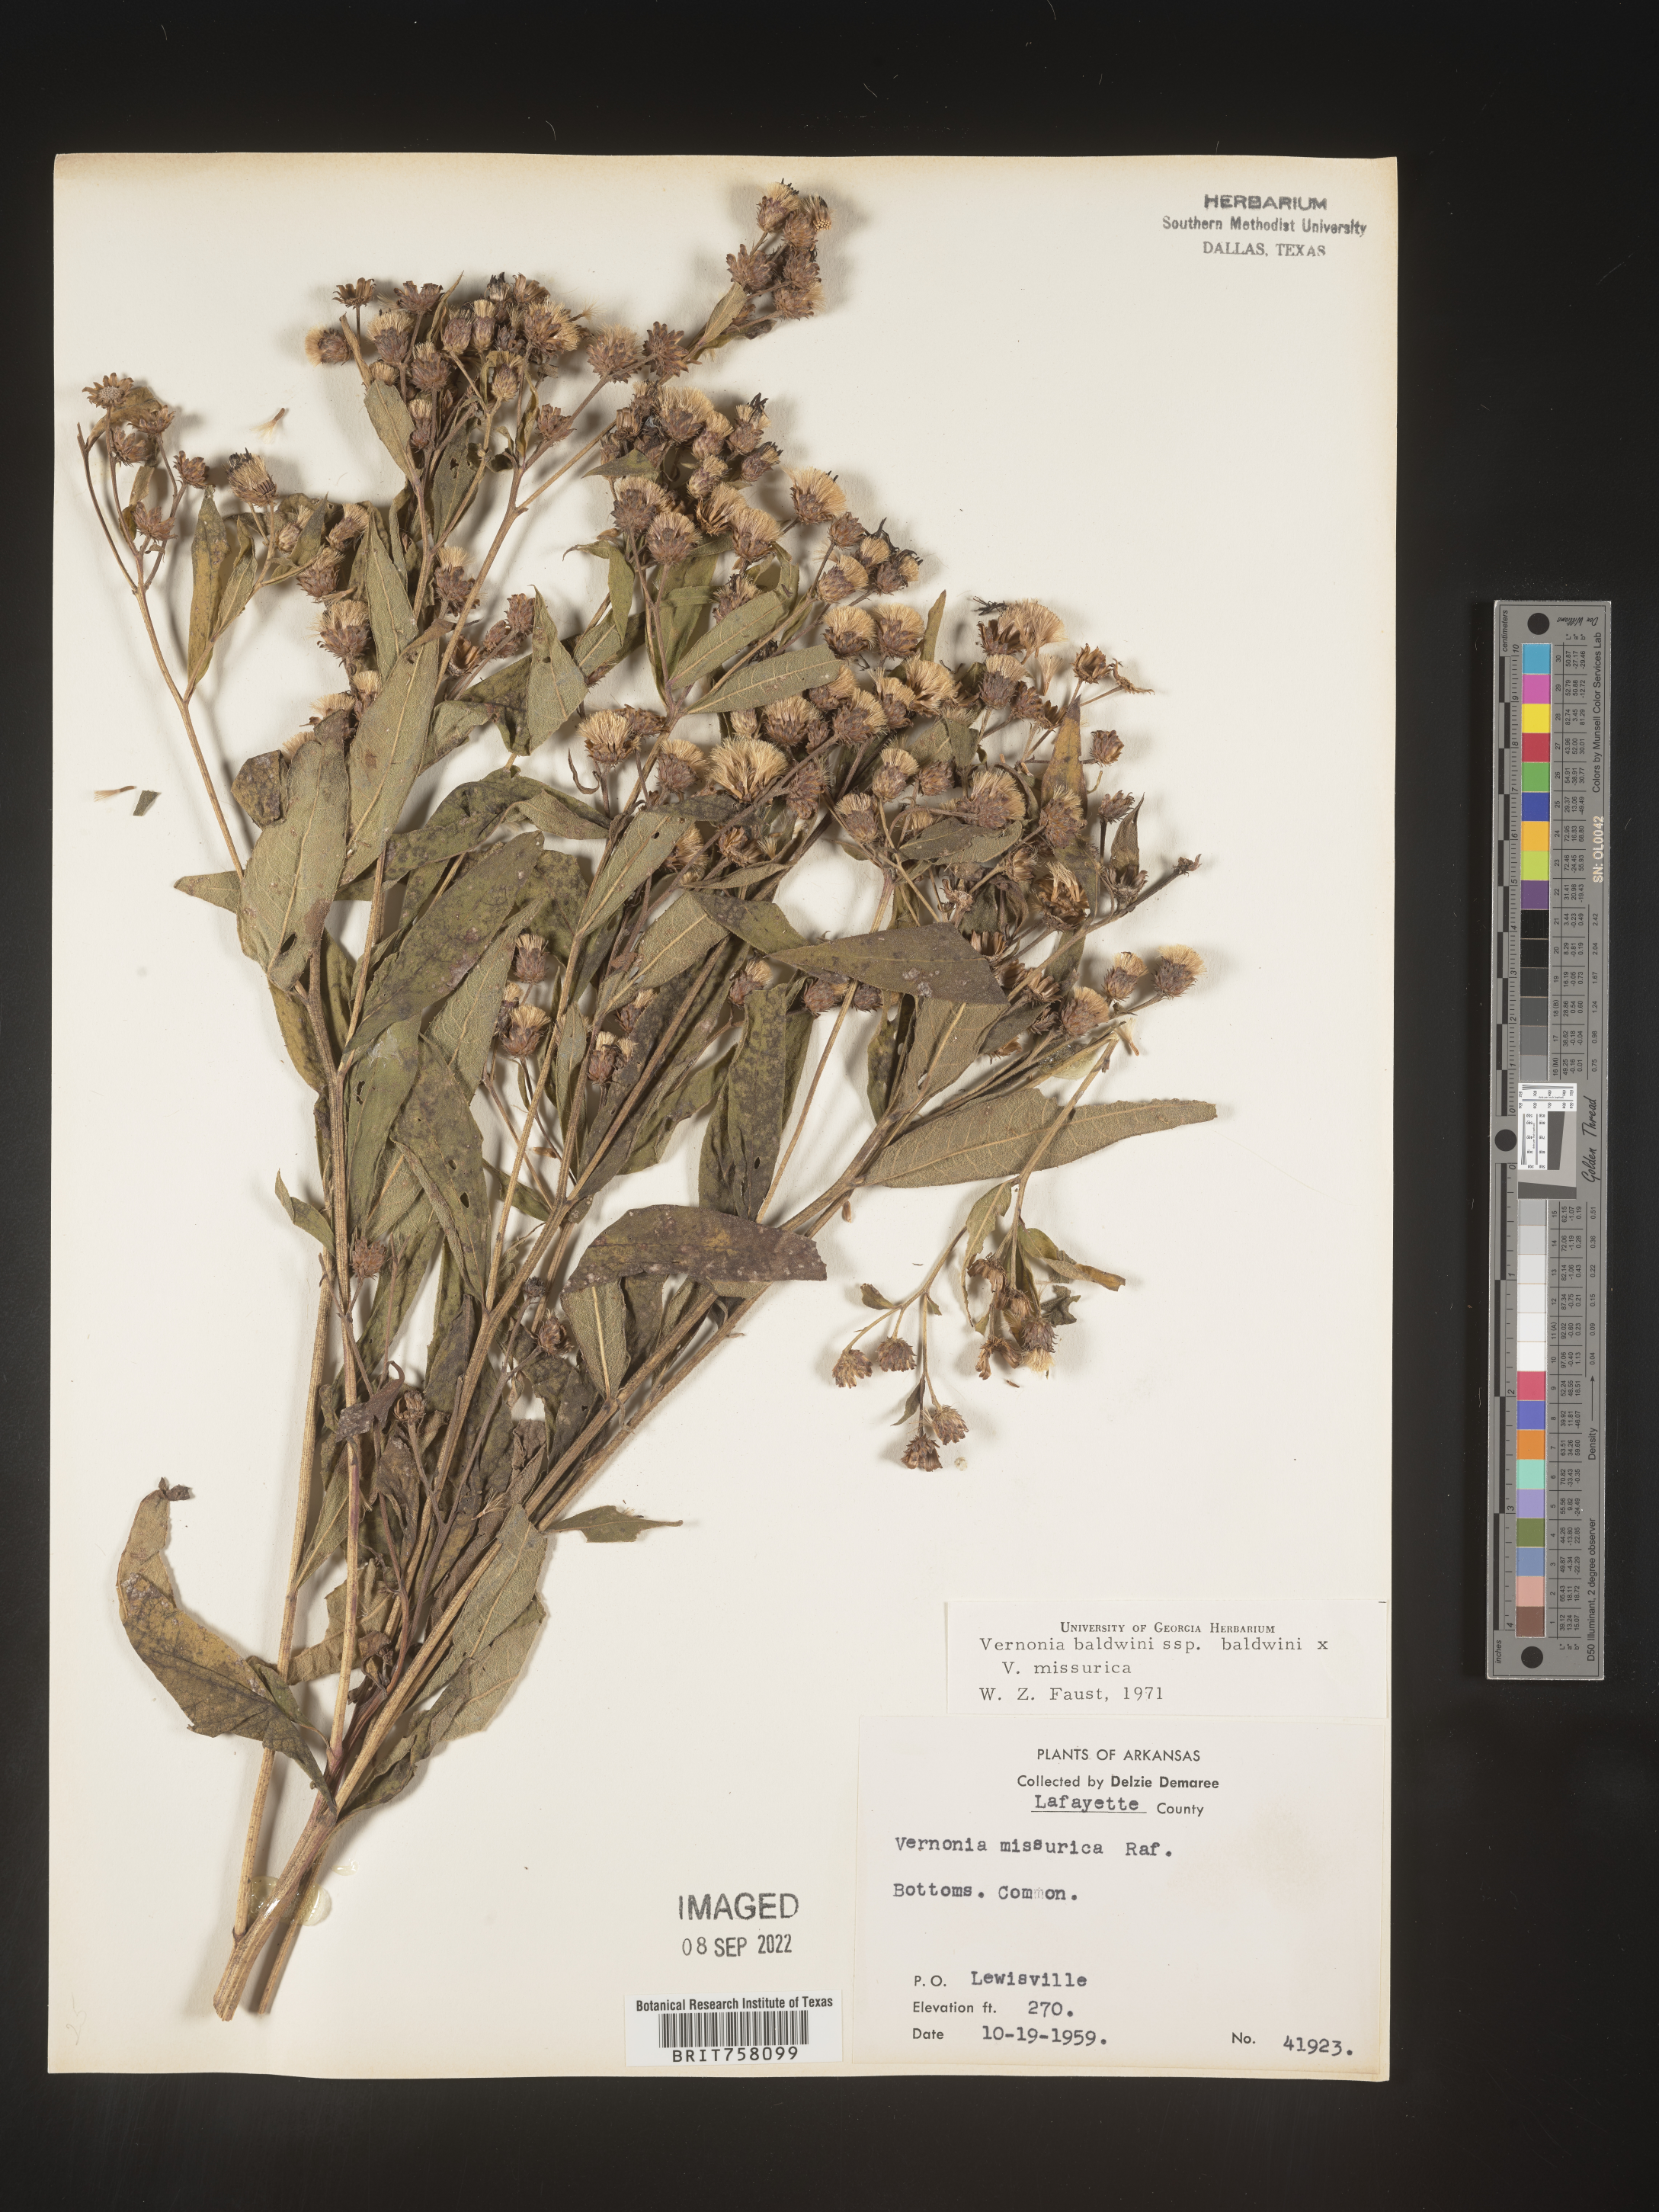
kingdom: Plantae
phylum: Tracheophyta
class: Magnoliopsida
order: Asterales
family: Asteraceae
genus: Vernonia
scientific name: Vernonia baldwinii
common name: Western ironweed
